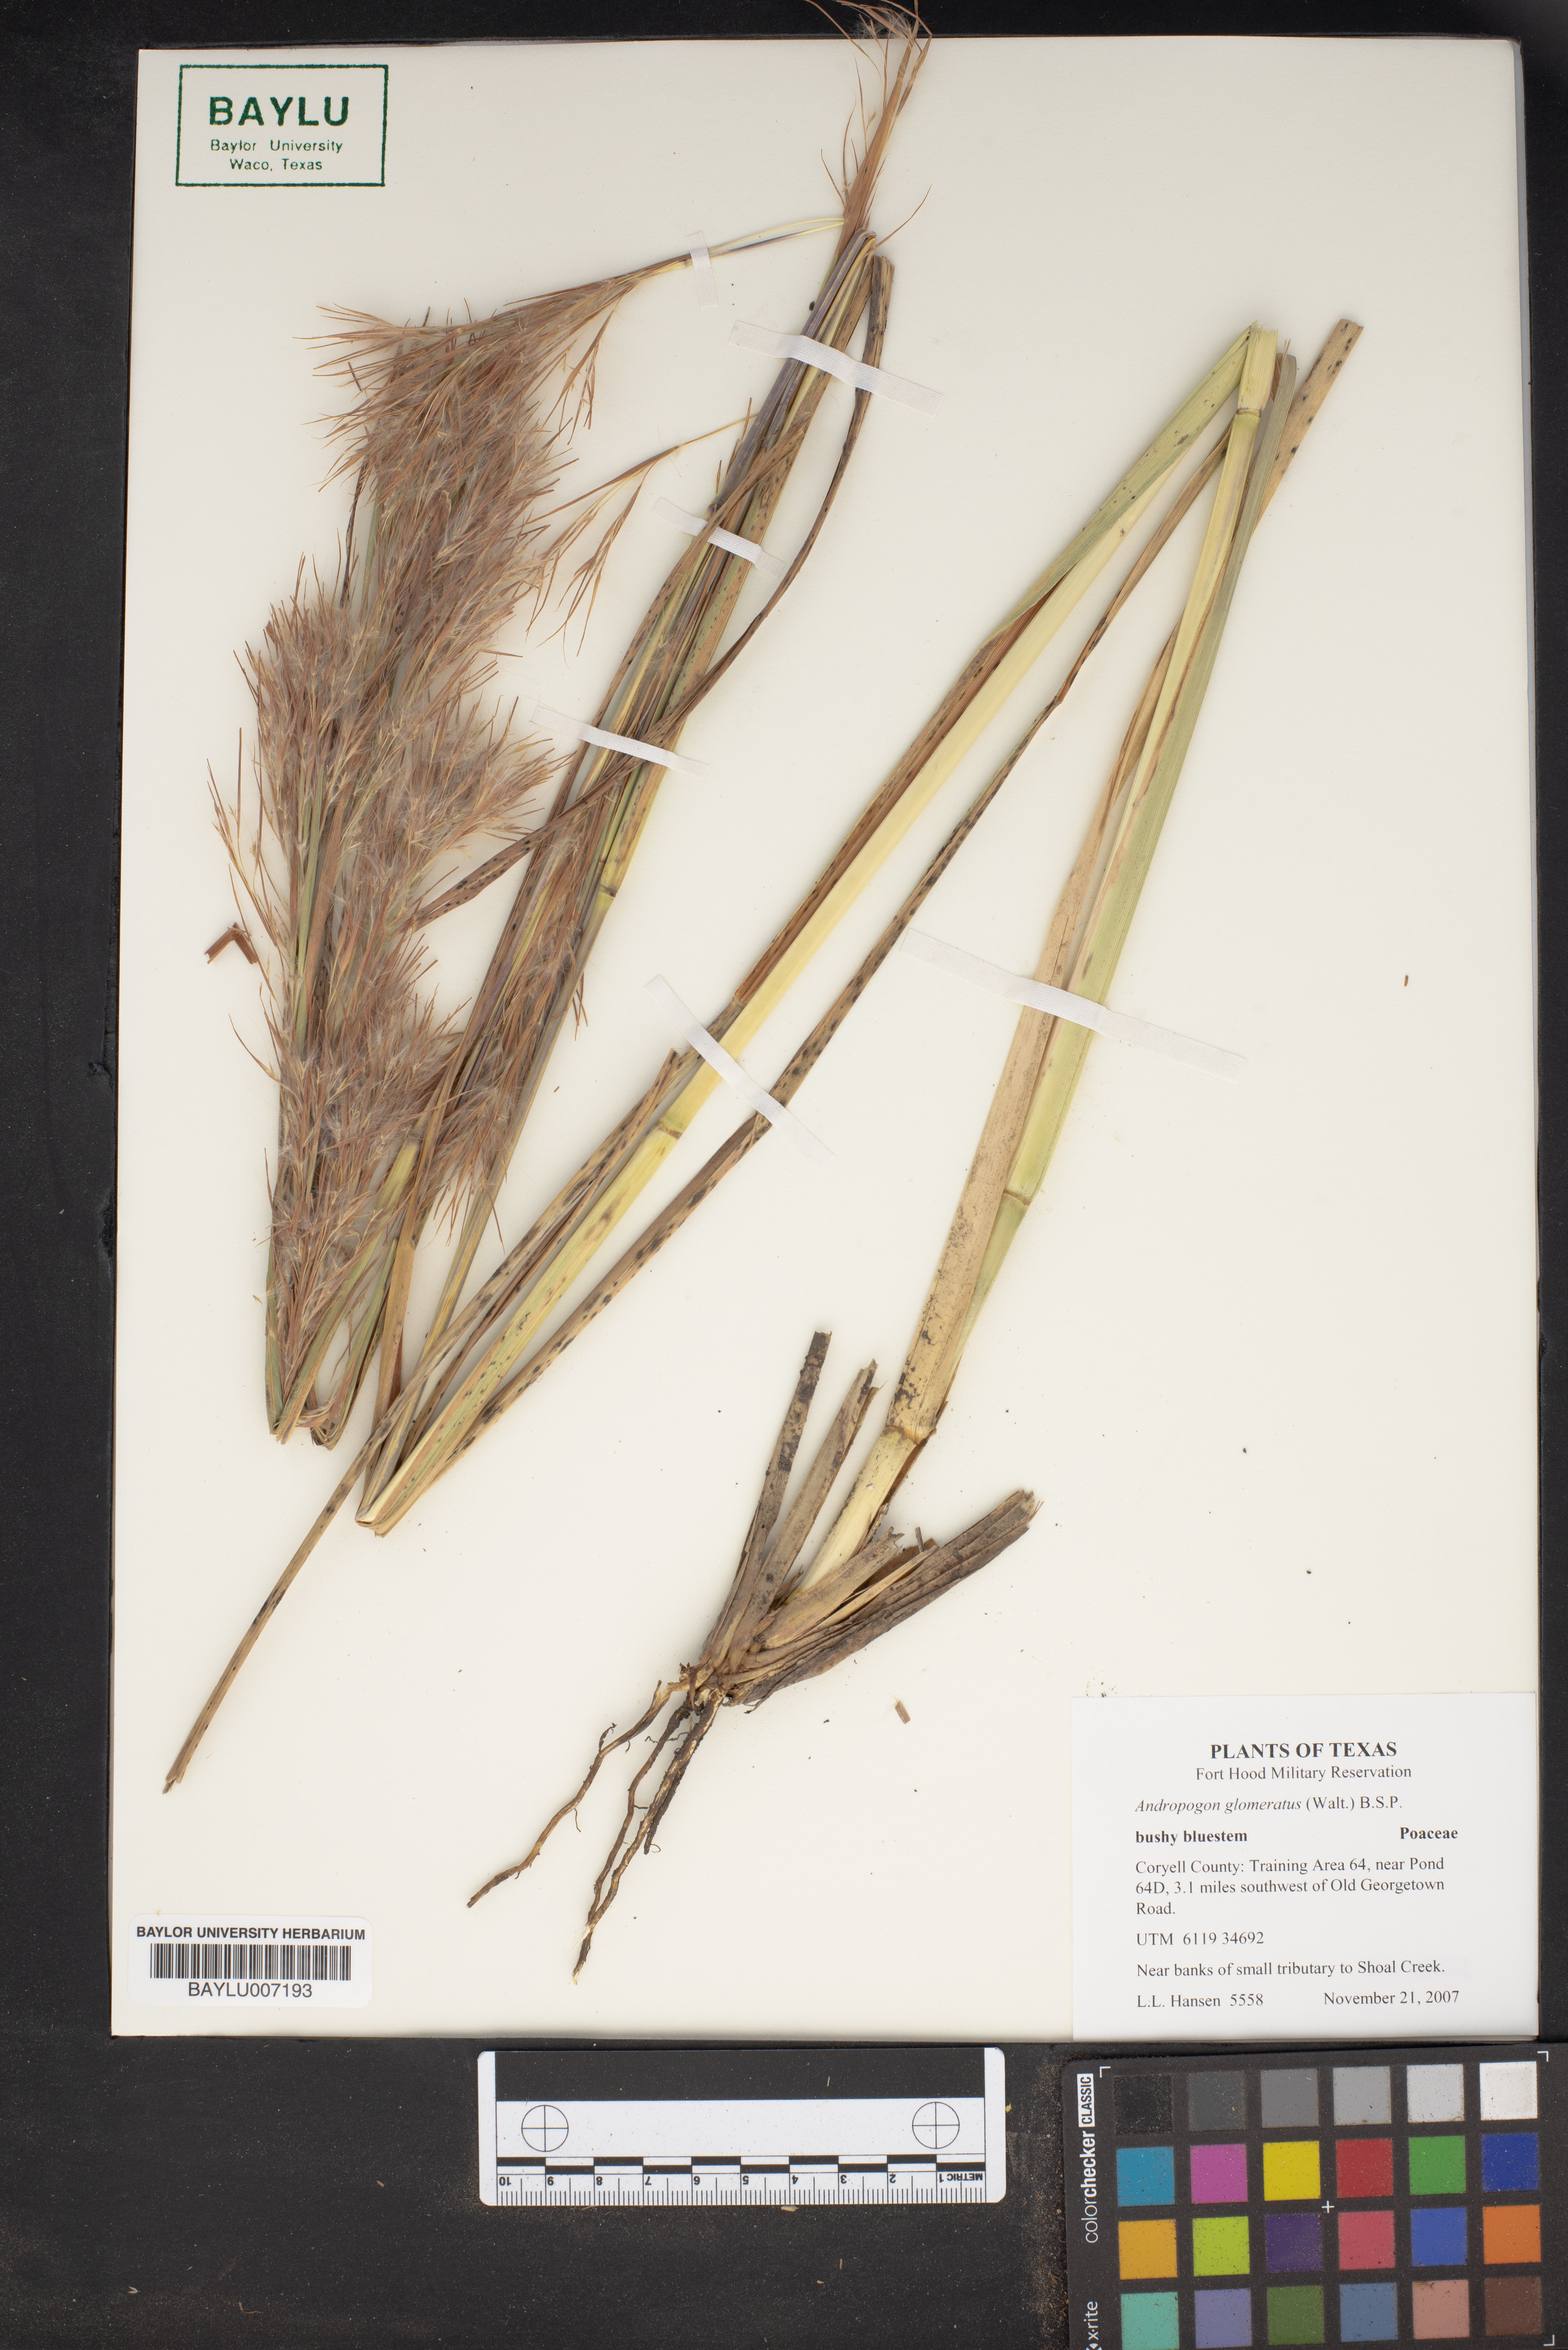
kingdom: Plantae
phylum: Tracheophyta
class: Liliopsida
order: Poales
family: Poaceae
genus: Andropogon
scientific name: Andropogon glomeratus
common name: Bushy beard grass
